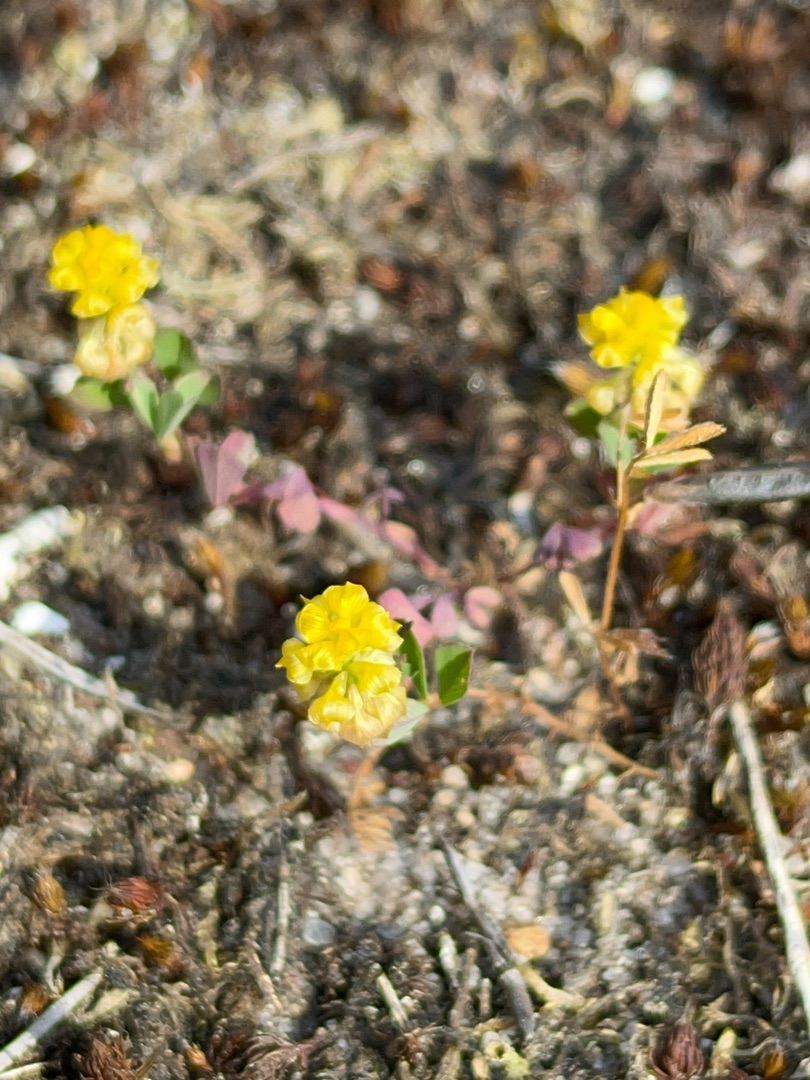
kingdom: Plantae
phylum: Tracheophyta
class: Magnoliopsida
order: Fabales
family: Fabaceae
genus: Trifolium
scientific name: Trifolium campestre
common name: Gul kløver
